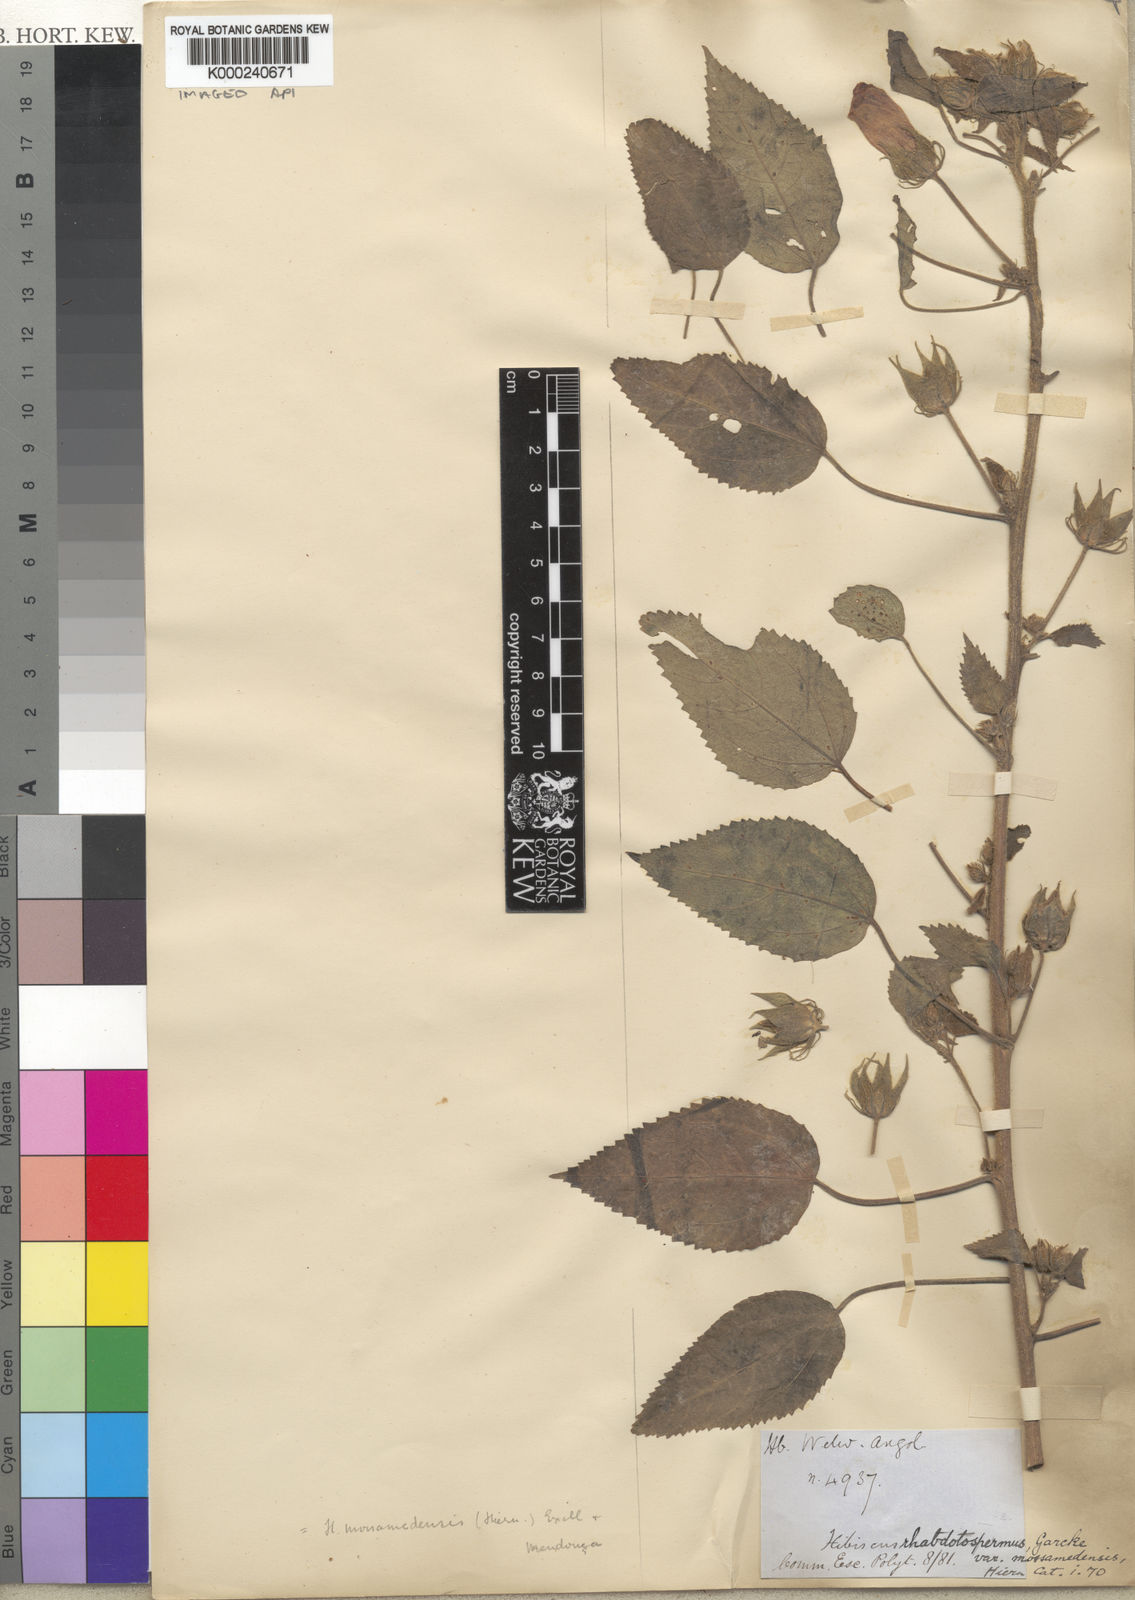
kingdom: Plantae
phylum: Tracheophyta
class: Magnoliopsida
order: Malvales
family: Malvaceae
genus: Hibiscus
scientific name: Hibiscus loandensis
